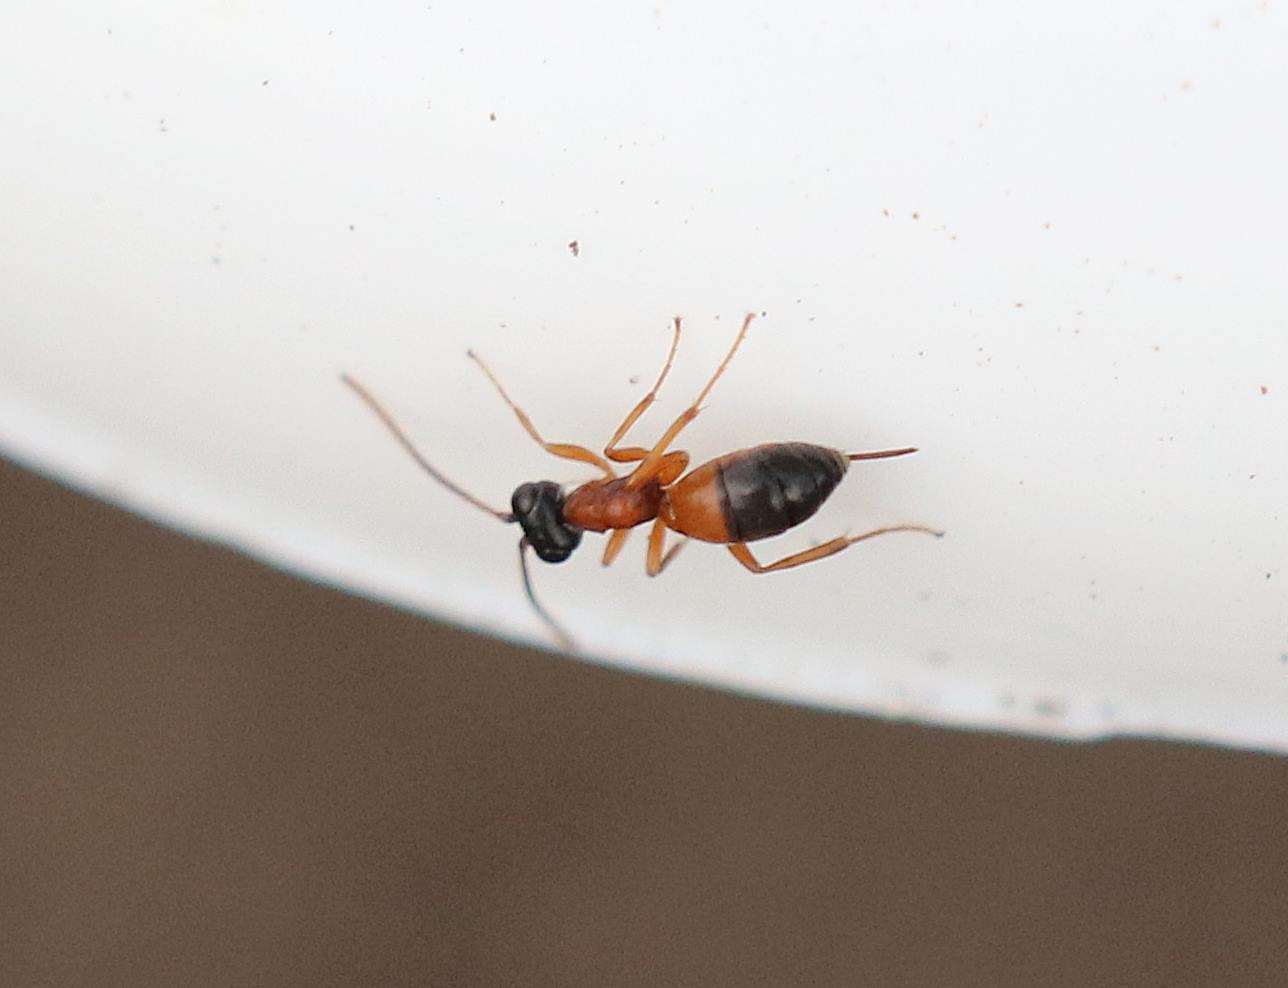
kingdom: Animalia
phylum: Arthropoda
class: Insecta
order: Hymenoptera
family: Ichneumonidae
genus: Gelis
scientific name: Gelis
